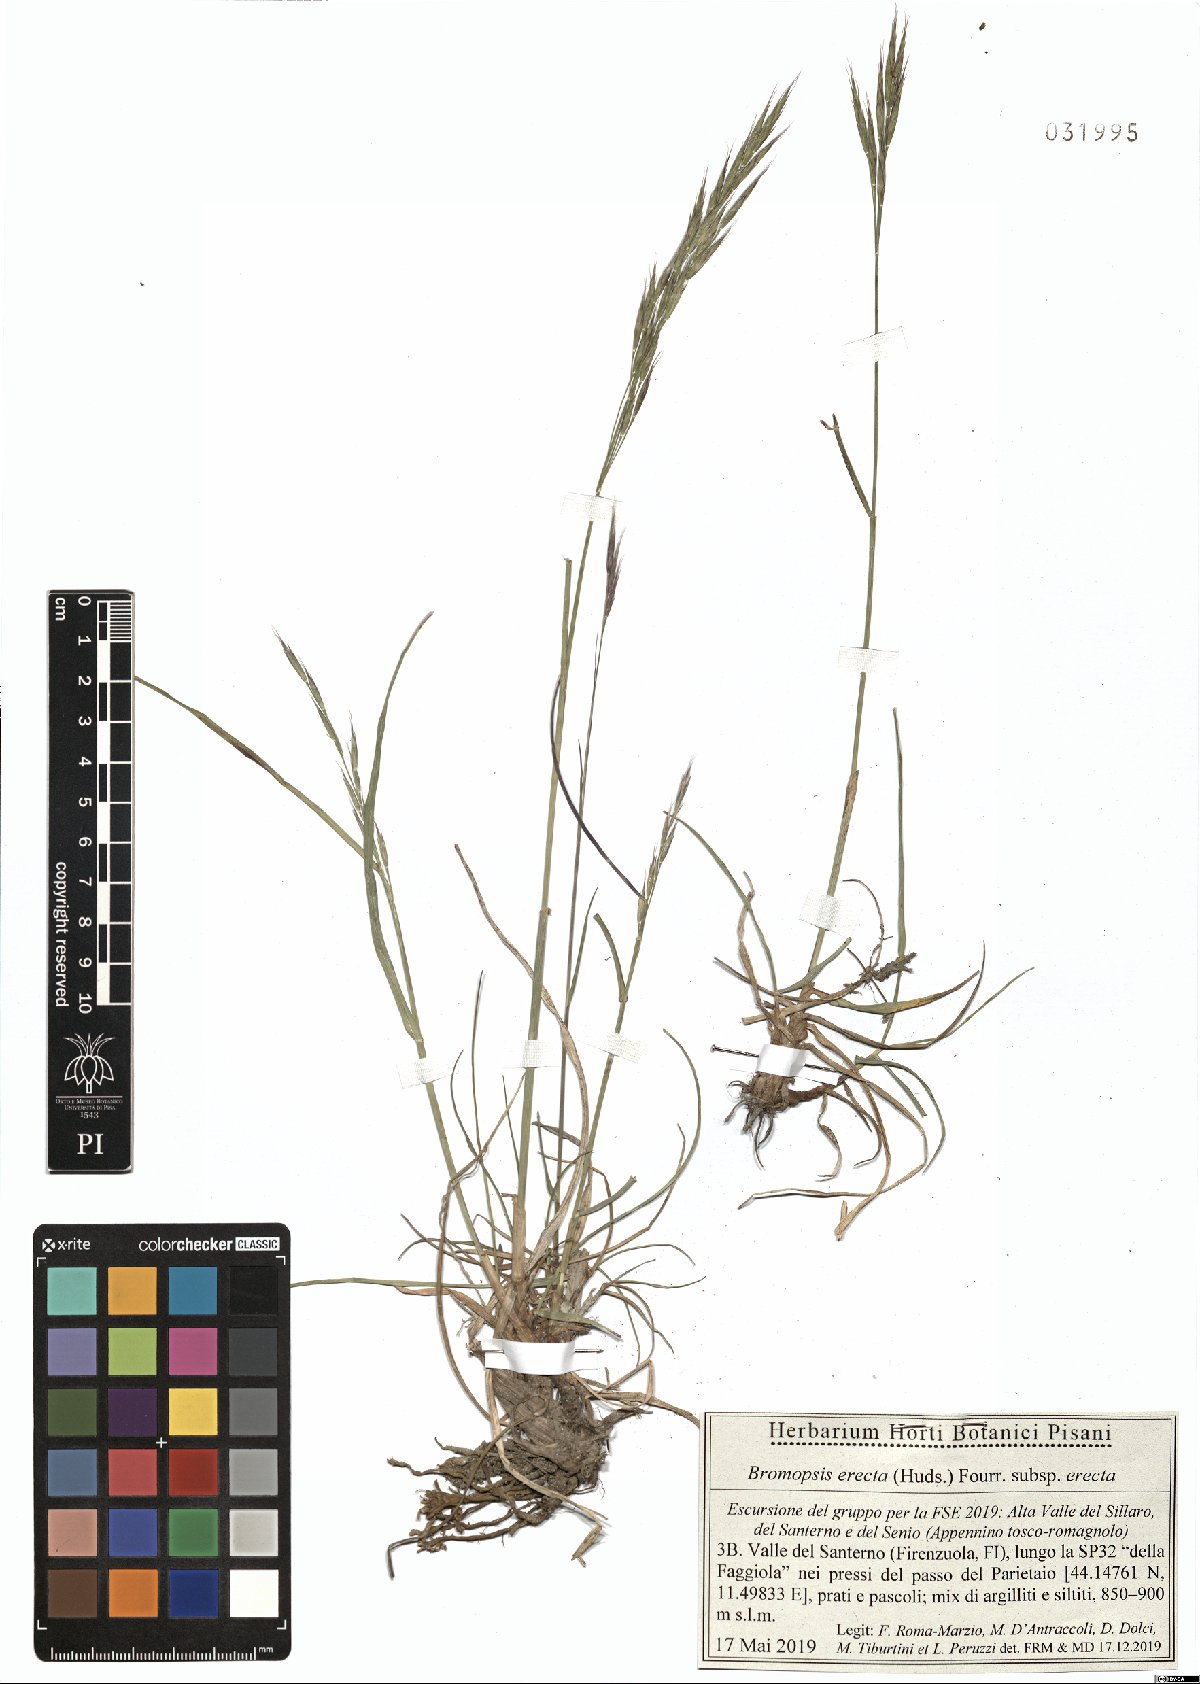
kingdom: Plantae
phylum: Tracheophyta
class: Liliopsida
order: Poales
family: Poaceae
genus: Bromus
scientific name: Bromus erectus
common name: Erect brome
